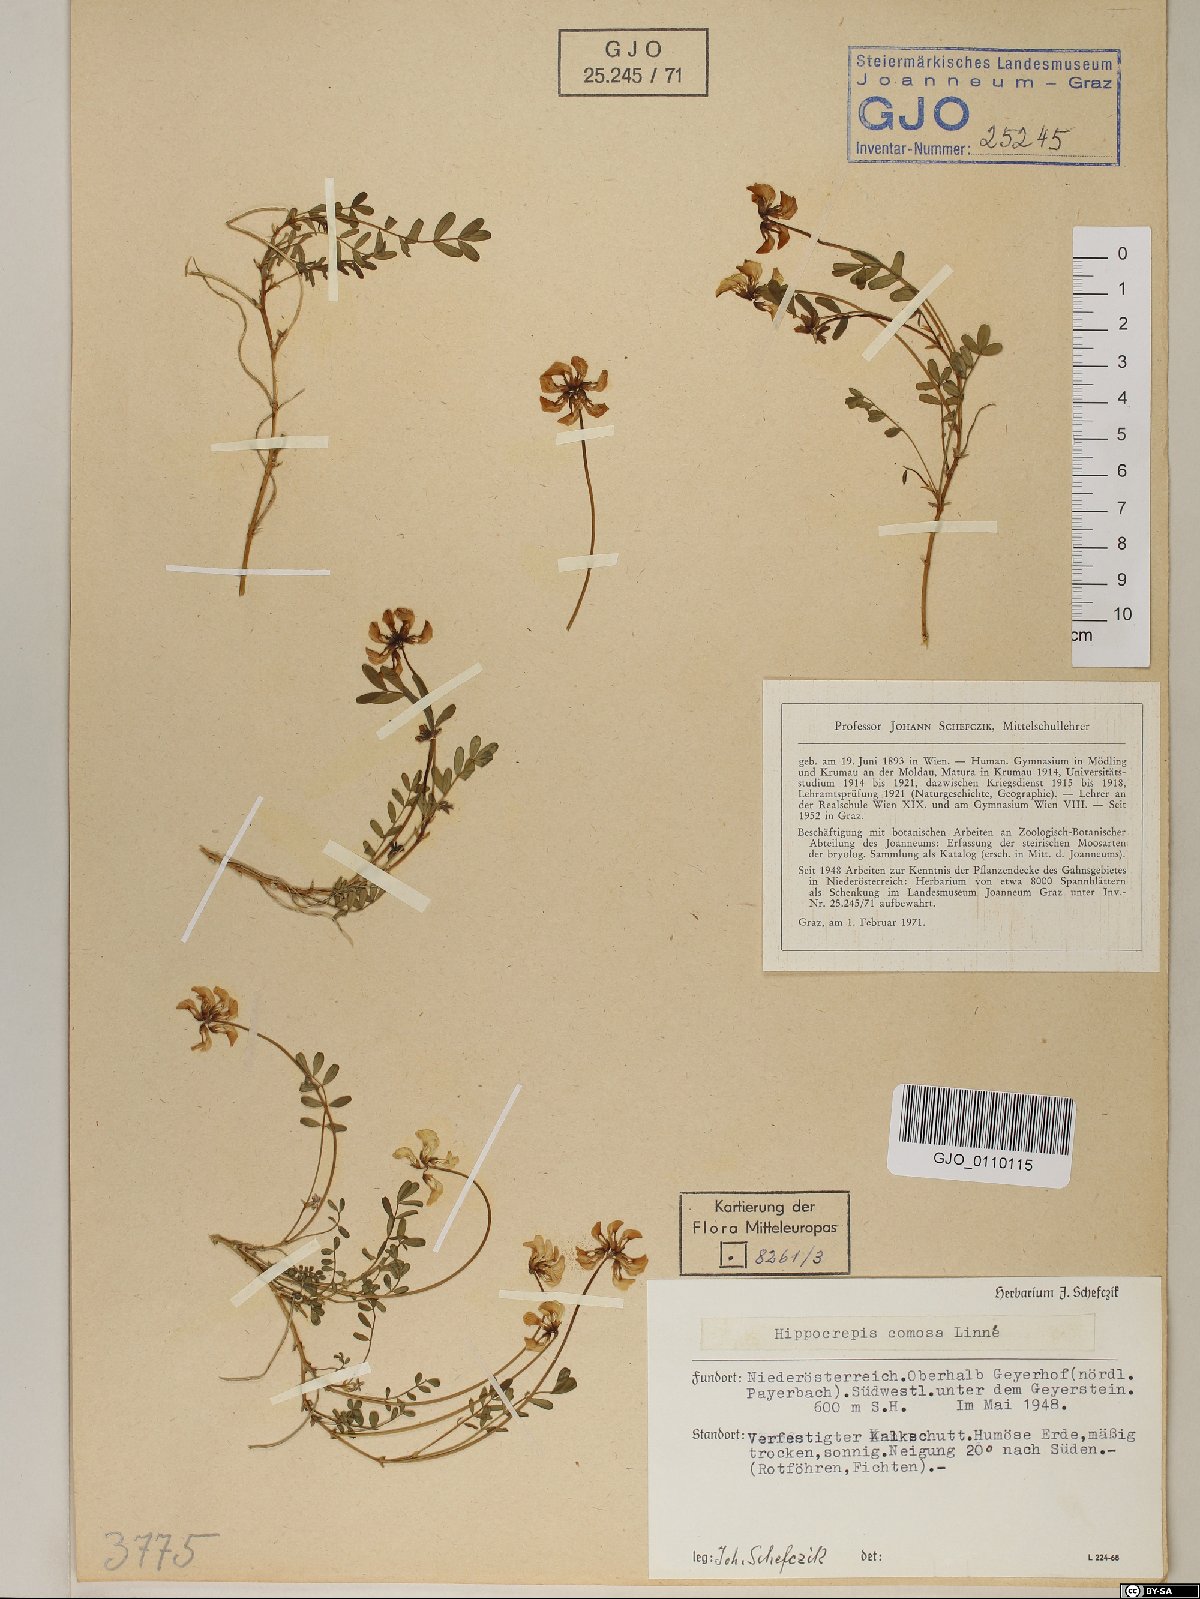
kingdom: Plantae
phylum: Tracheophyta
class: Magnoliopsida
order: Fabales
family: Fabaceae
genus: Hippocrepis
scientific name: Hippocrepis comosa
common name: Horseshoe vetch
